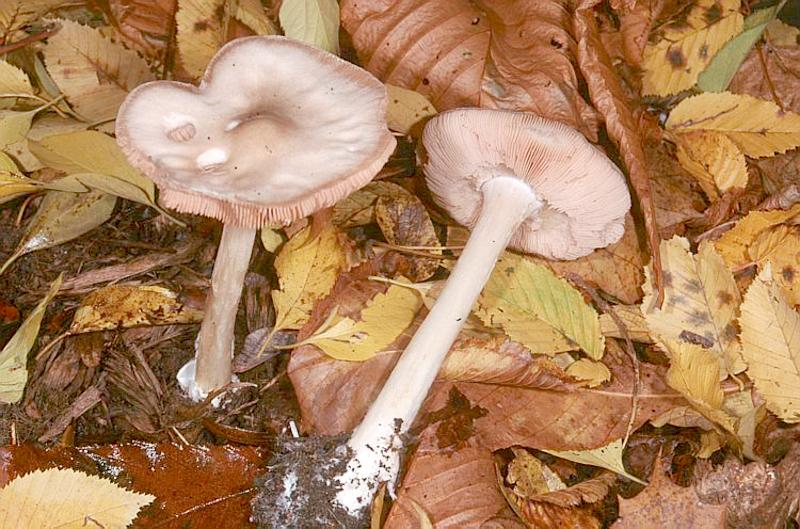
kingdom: Fungi
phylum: Basidiomycota
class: Agaricomycetes
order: Agaricales
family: Pluteaceae
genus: Volvopluteus
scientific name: Volvopluteus gloiocephalus
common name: Stubble rosegill
